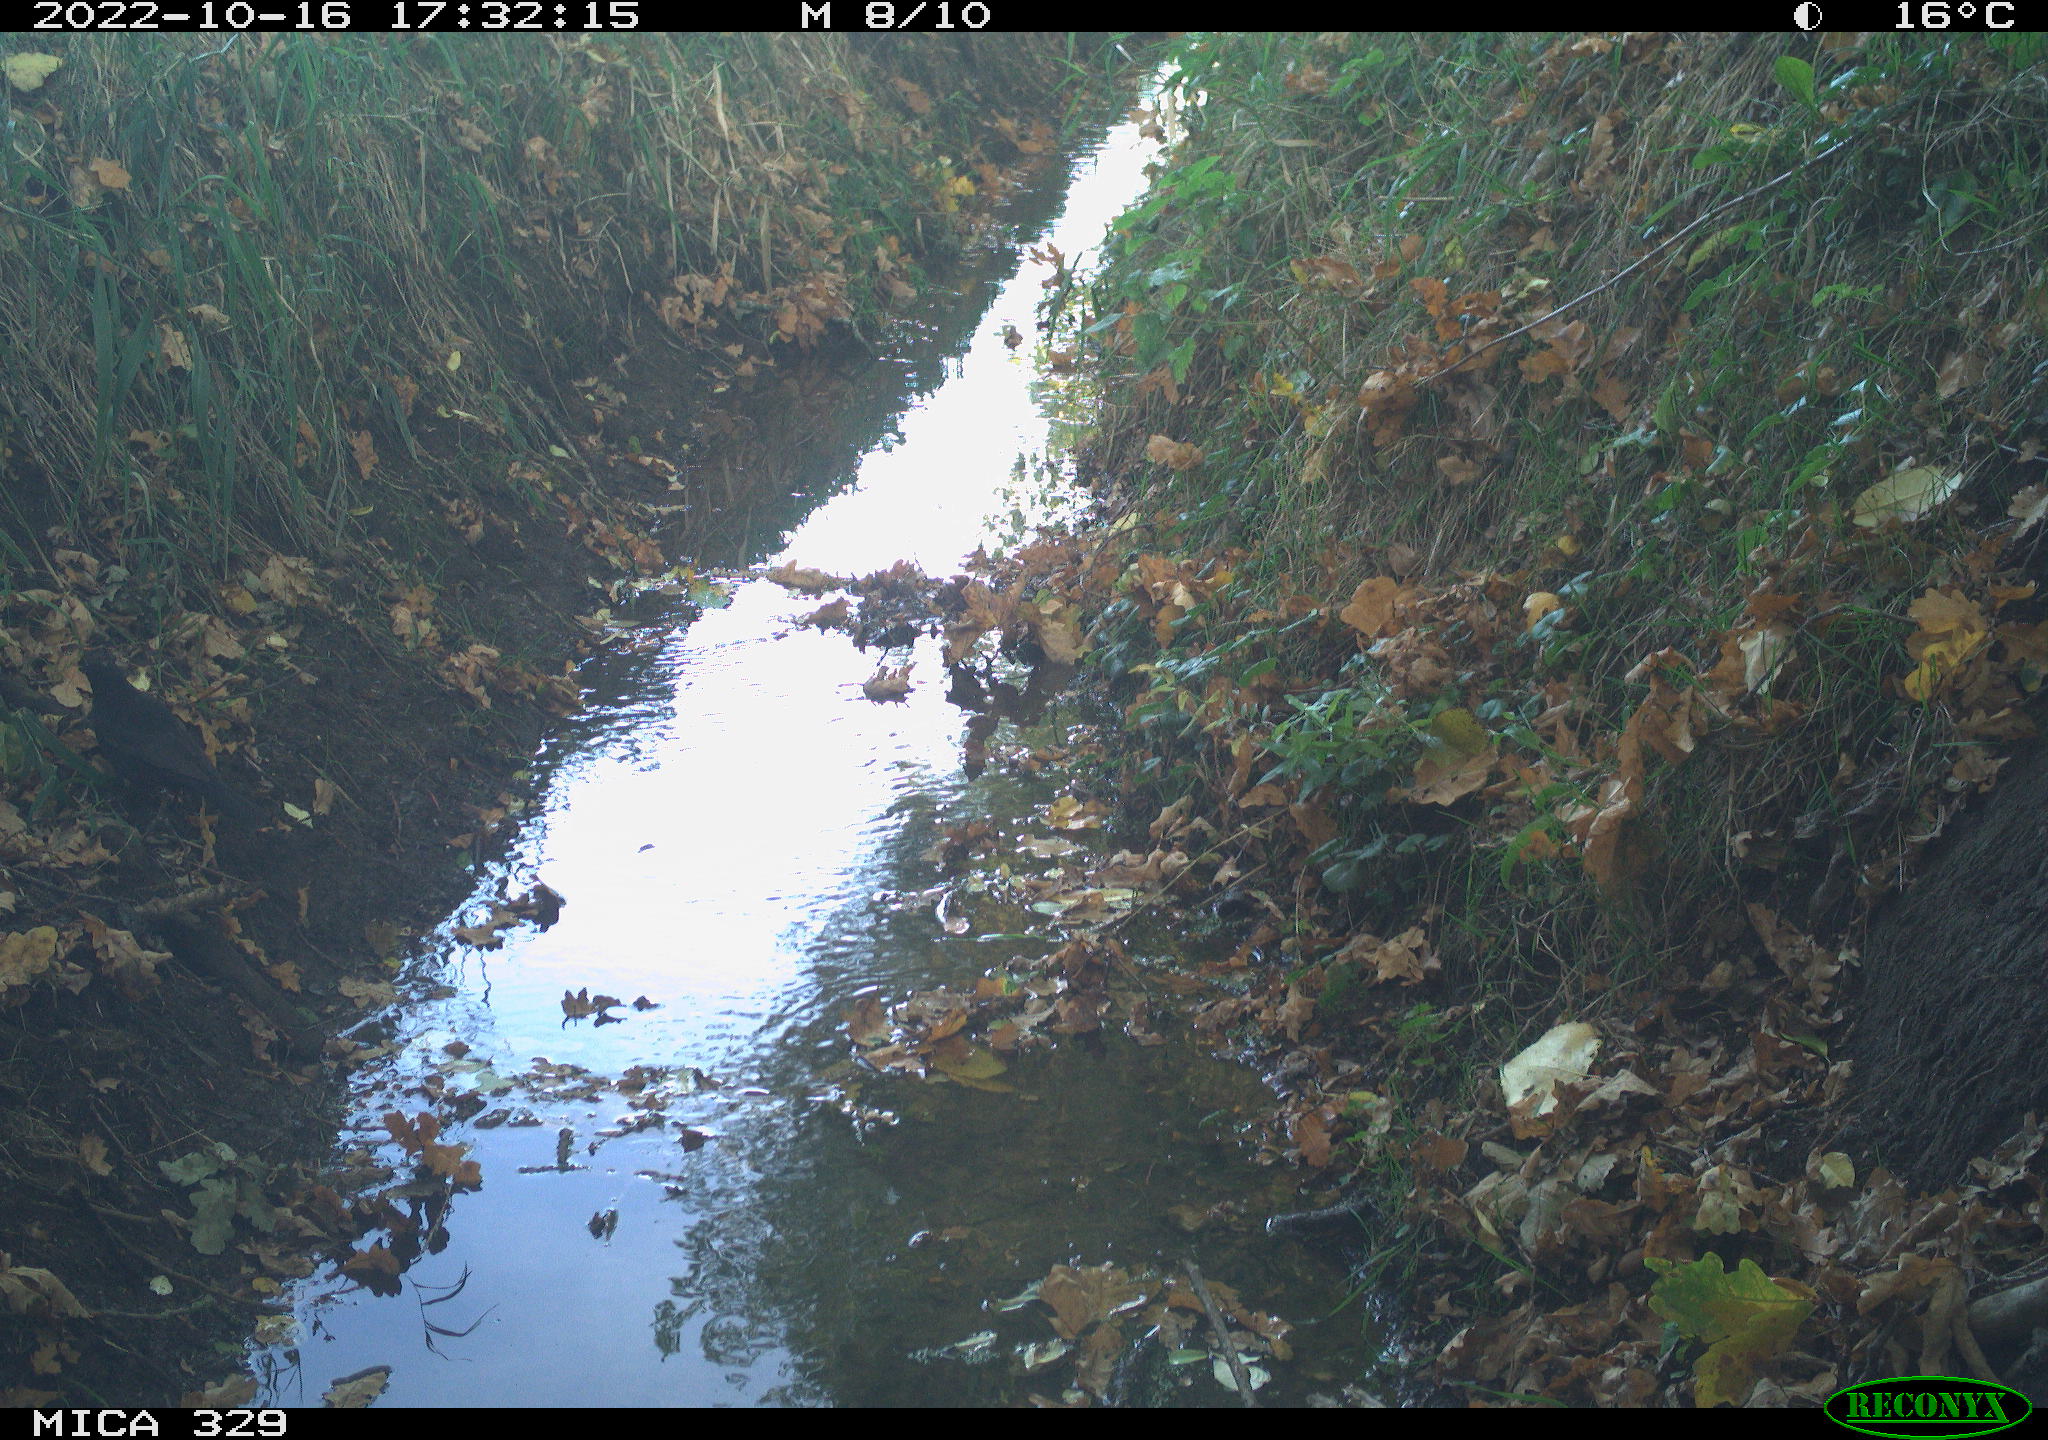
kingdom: Animalia
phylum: Chordata
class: Aves
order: Passeriformes
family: Turdidae
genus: Turdus
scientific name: Turdus merula
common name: Common blackbird
